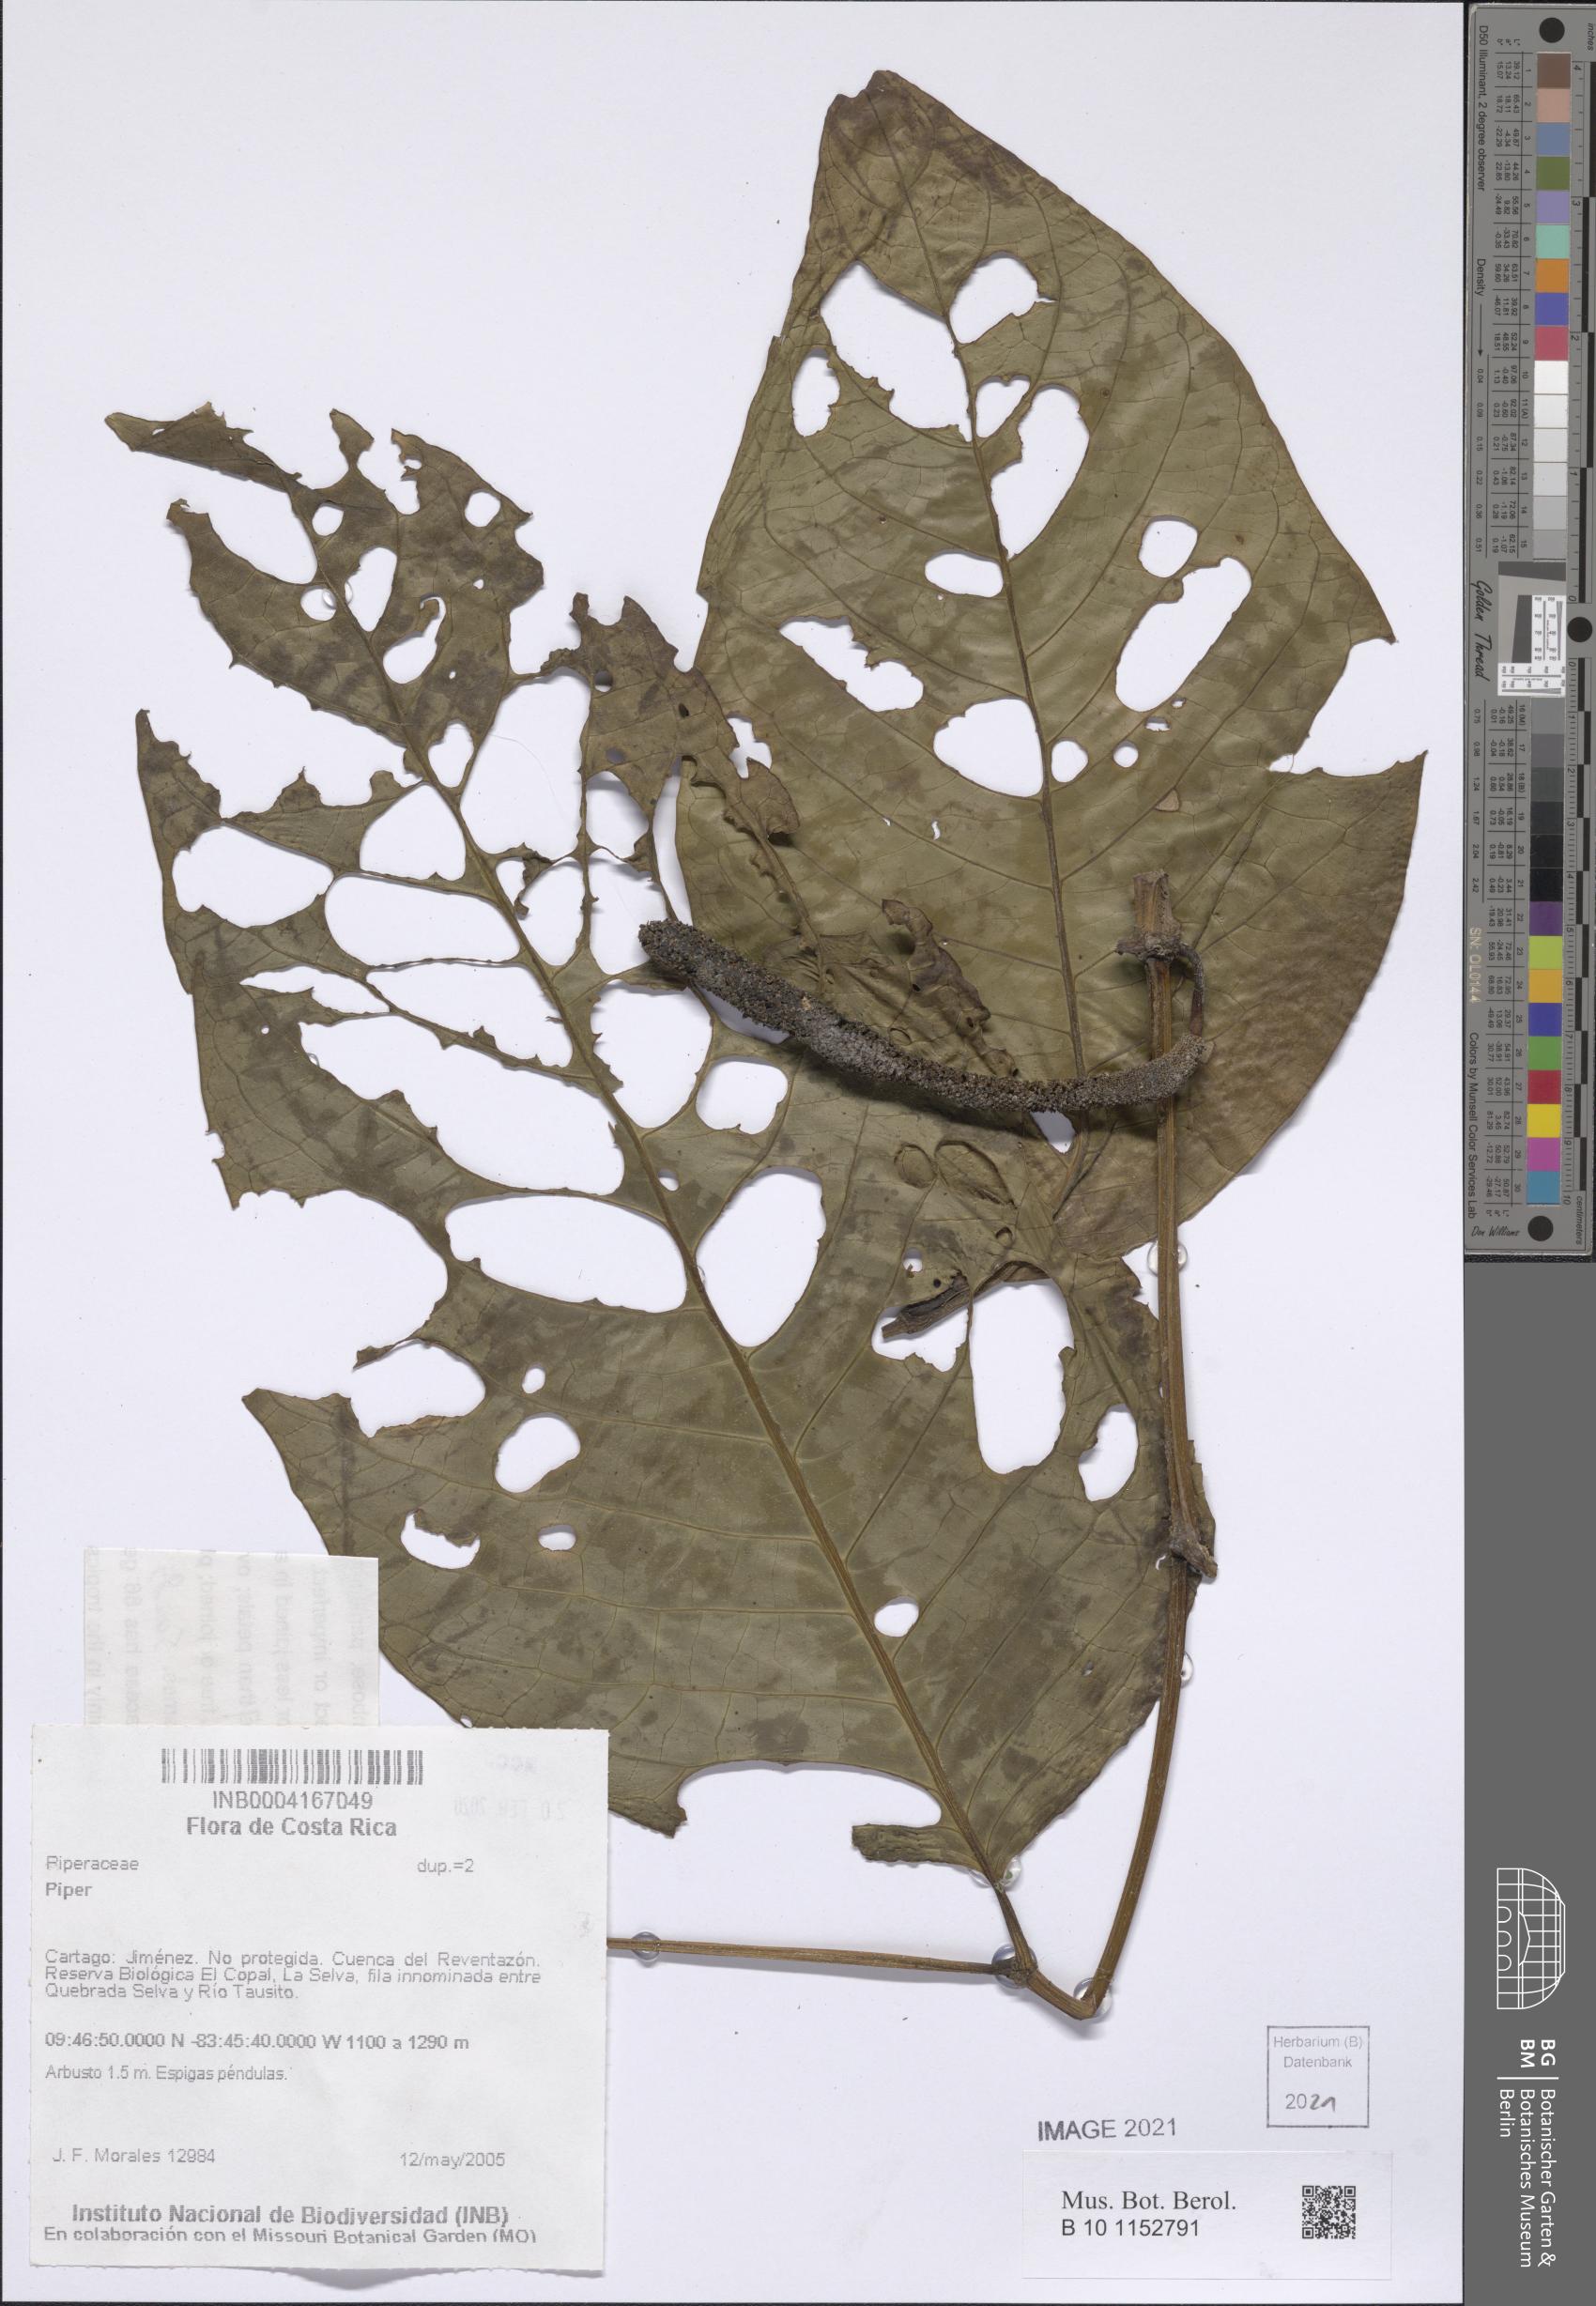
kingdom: Plantae
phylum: Tracheophyta
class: Magnoliopsida
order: Piperales
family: Piperaceae
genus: Piper
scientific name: Piper
